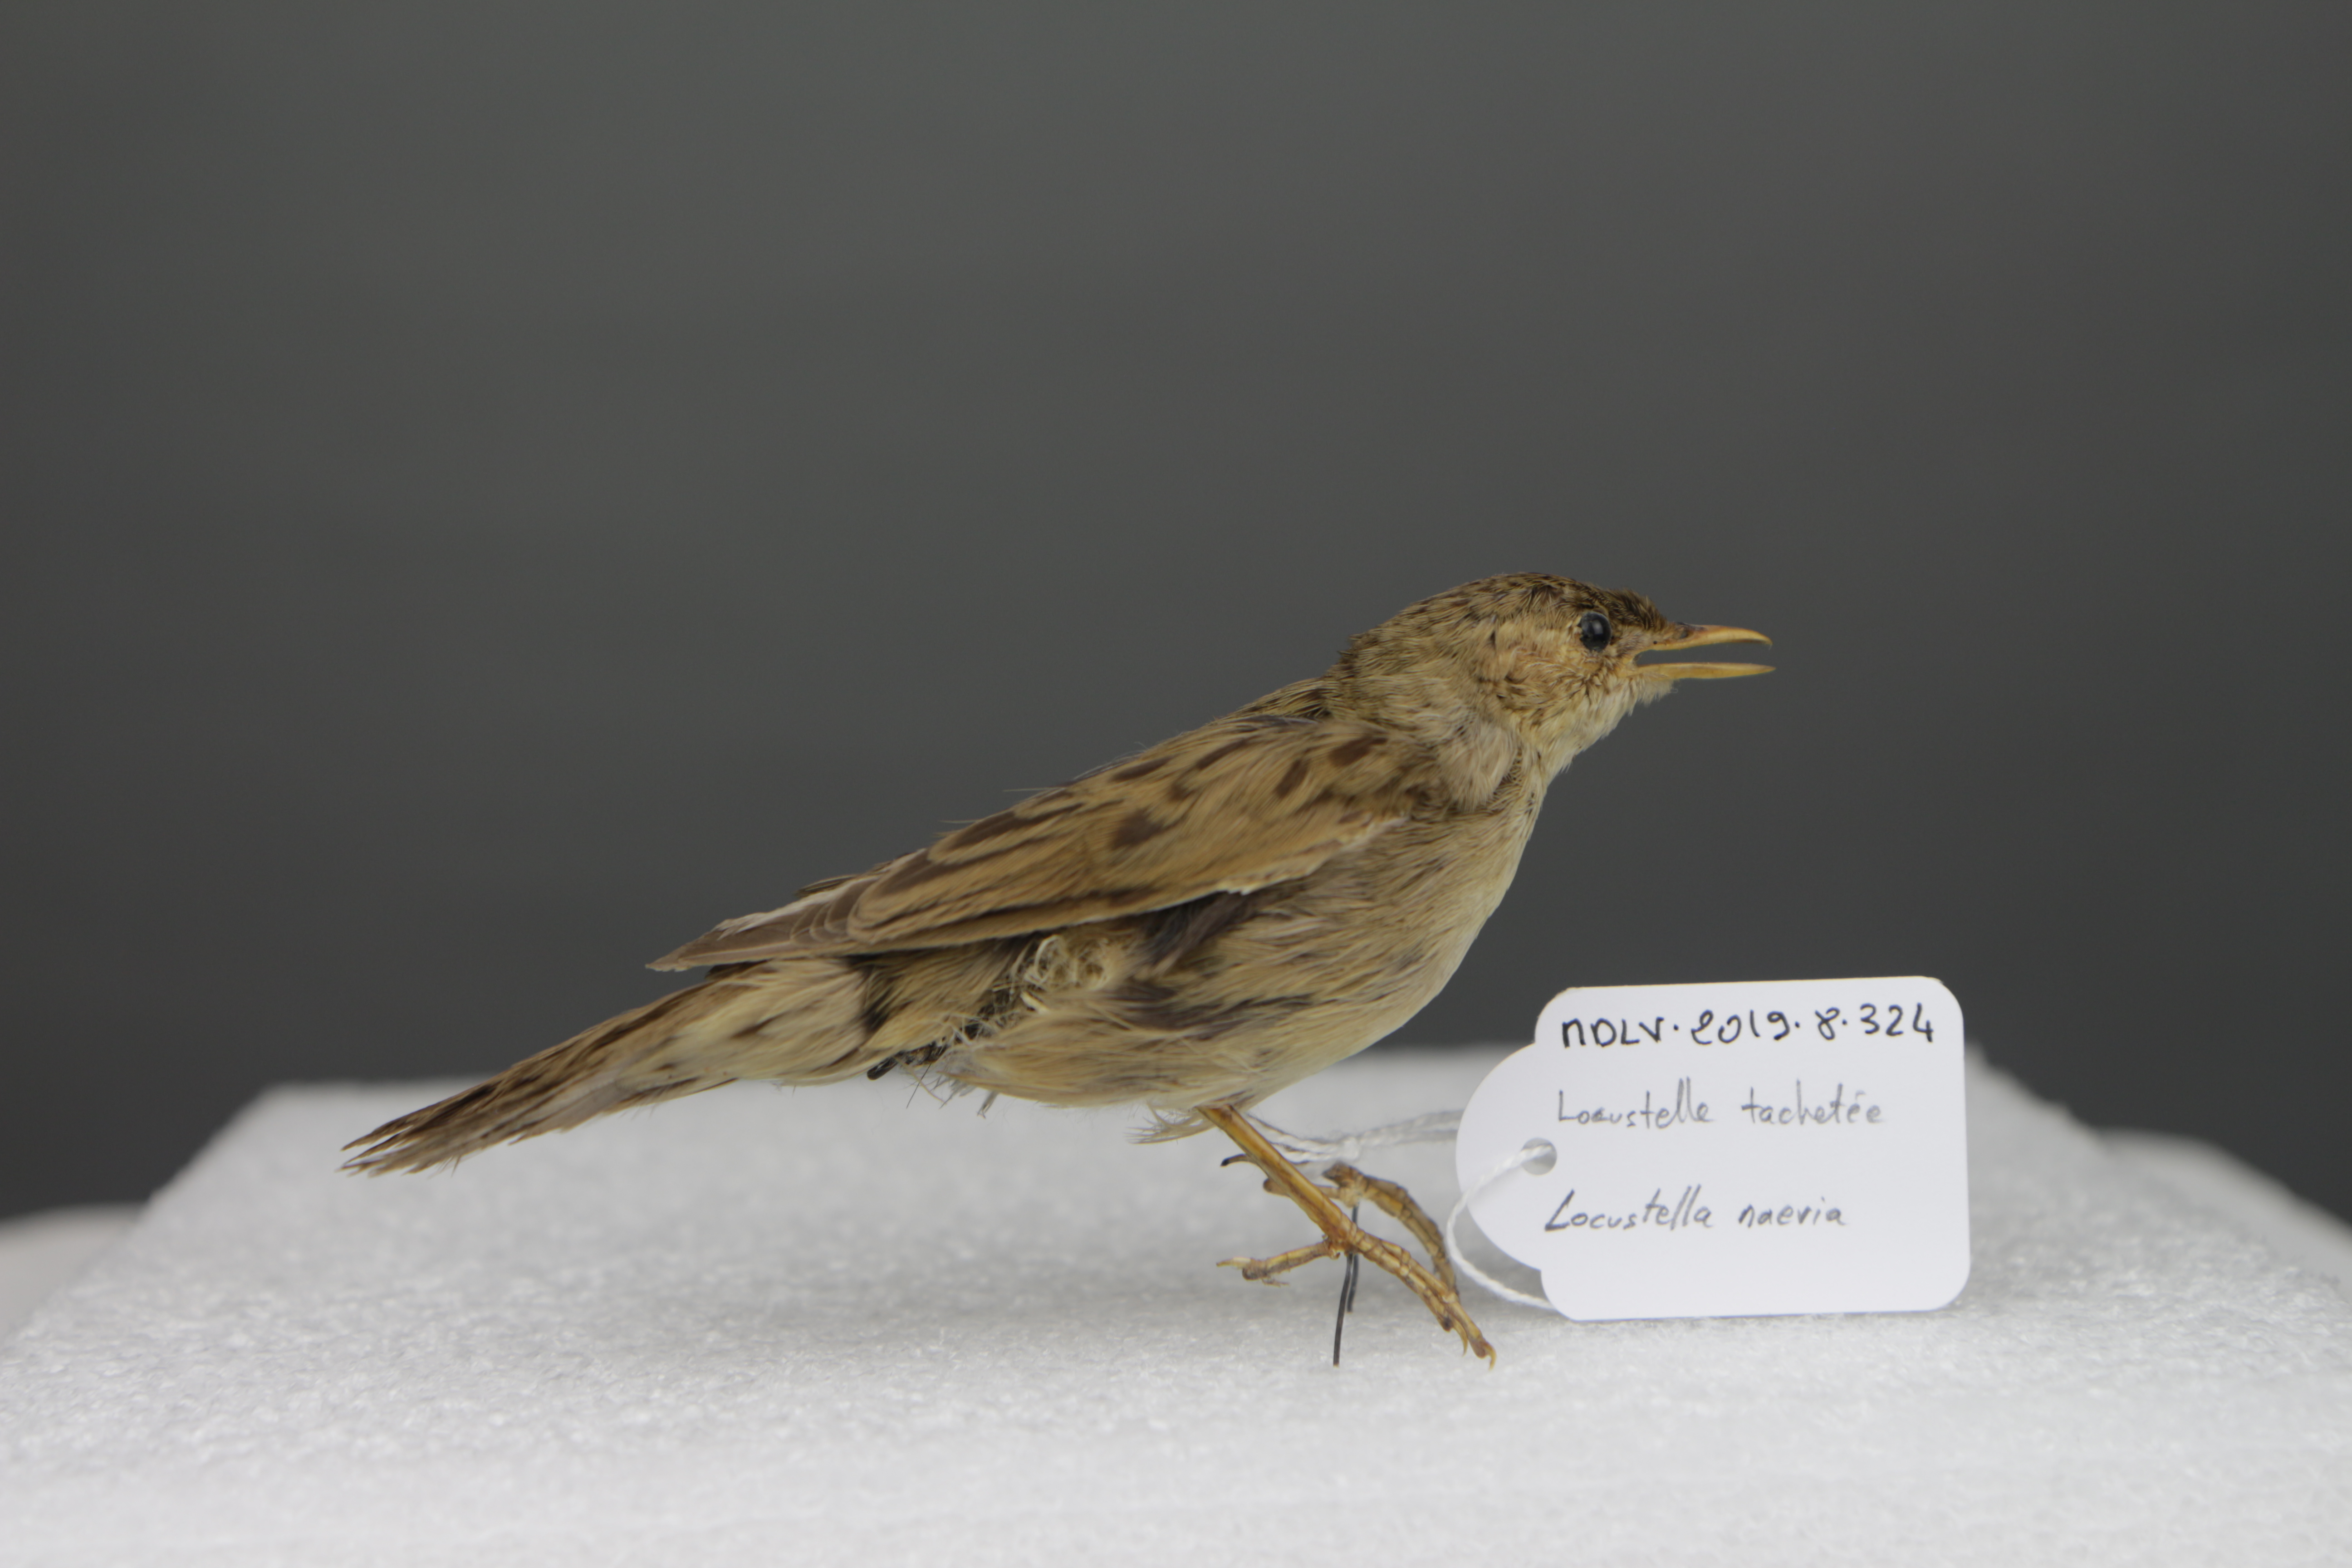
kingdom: Animalia
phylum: Chordata
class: Aves
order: Passeriformes
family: Locustellidae
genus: Locustella
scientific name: Locustella naevia
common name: Common grasshopper warbler
